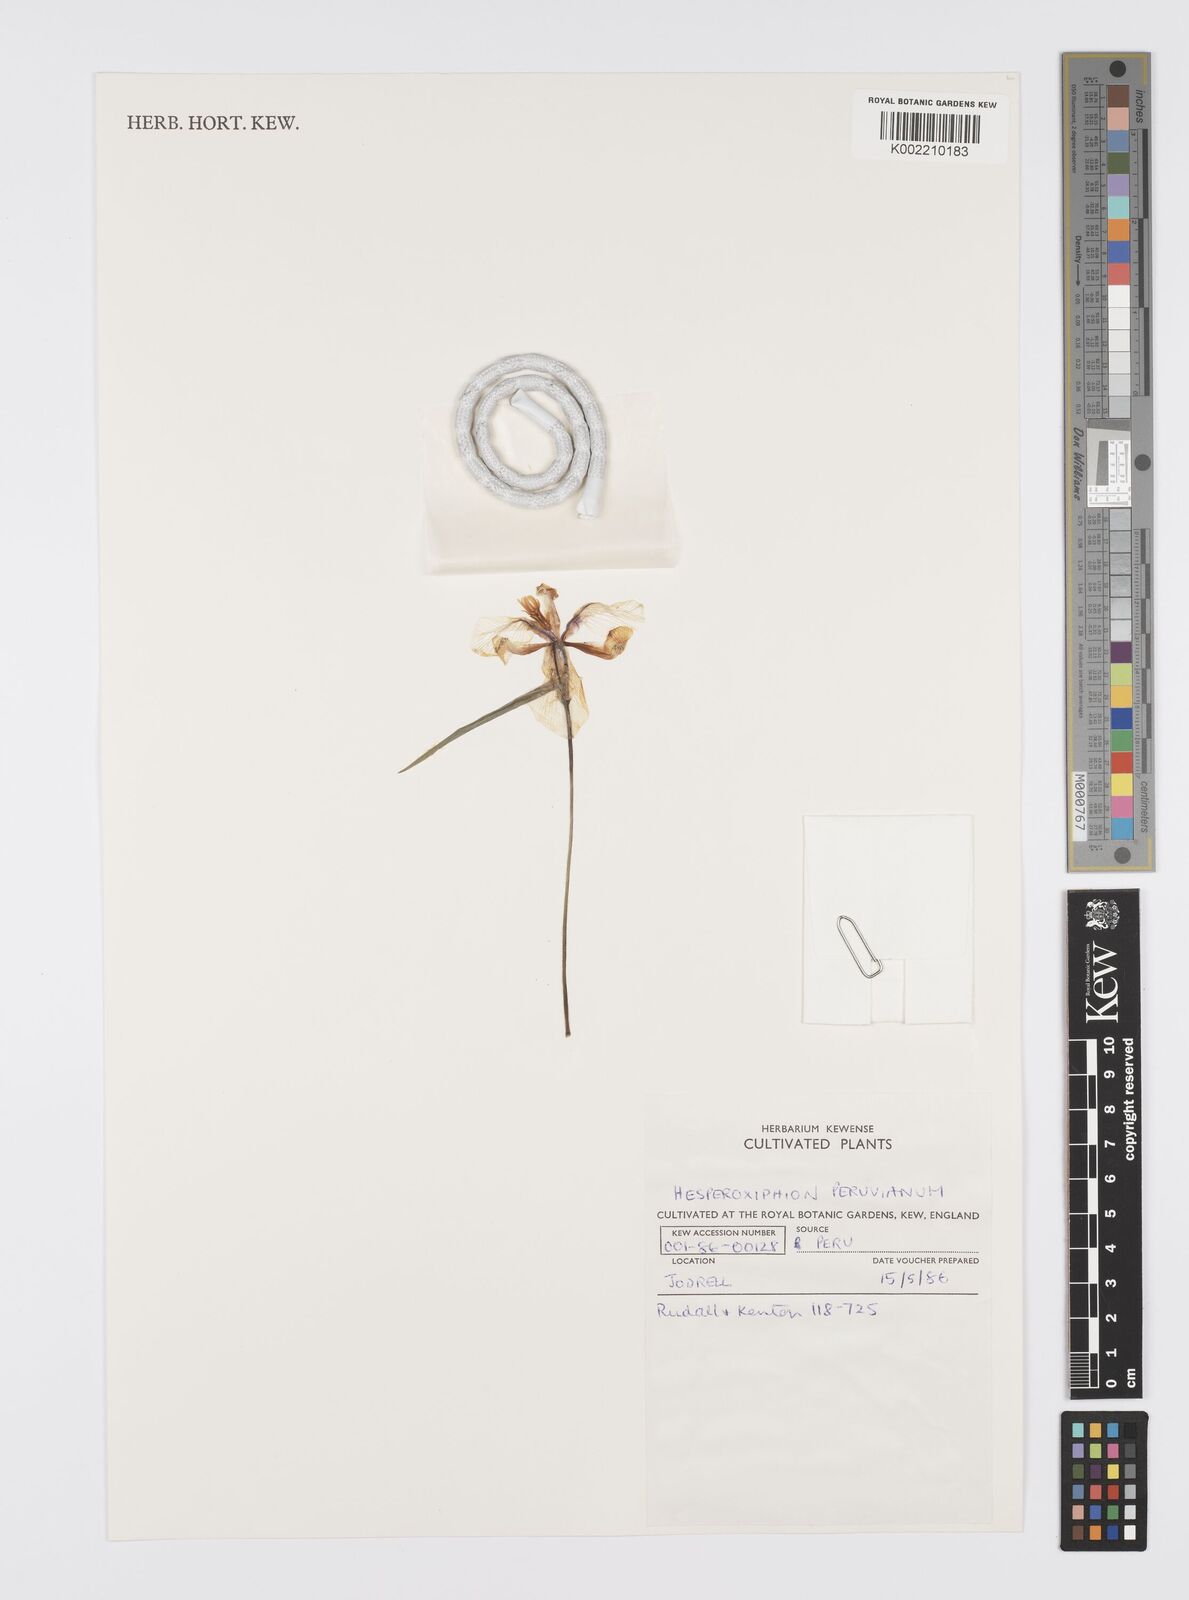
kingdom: Plantae
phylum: Tracheophyta
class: Liliopsida
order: Asparagales
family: Iridaceae
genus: Hesperoxiphion
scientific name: Hesperoxiphion peruvianum
